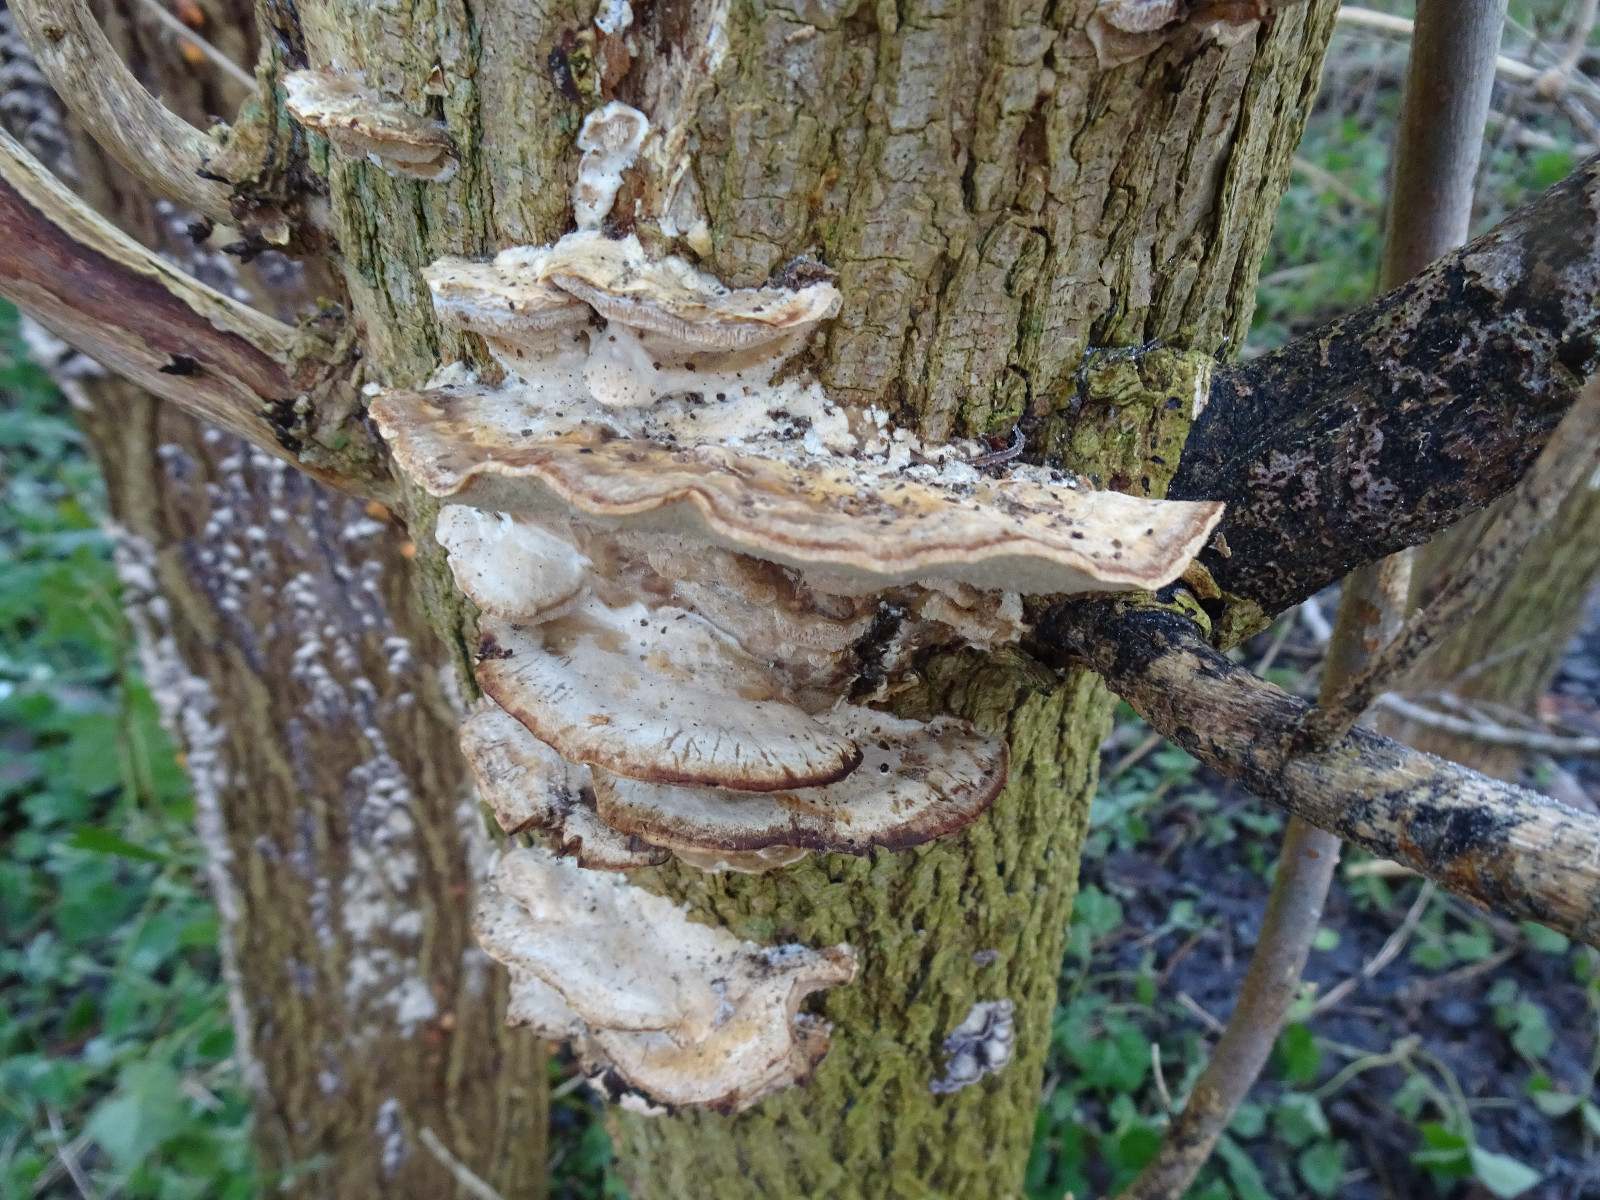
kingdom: Fungi
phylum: Basidiomycota
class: Agaricomycetes
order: Polyporales
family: Phanerochaetaceae
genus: Bjerkandera
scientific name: Bjerkandera fumosa
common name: grågul sodporesvamp
